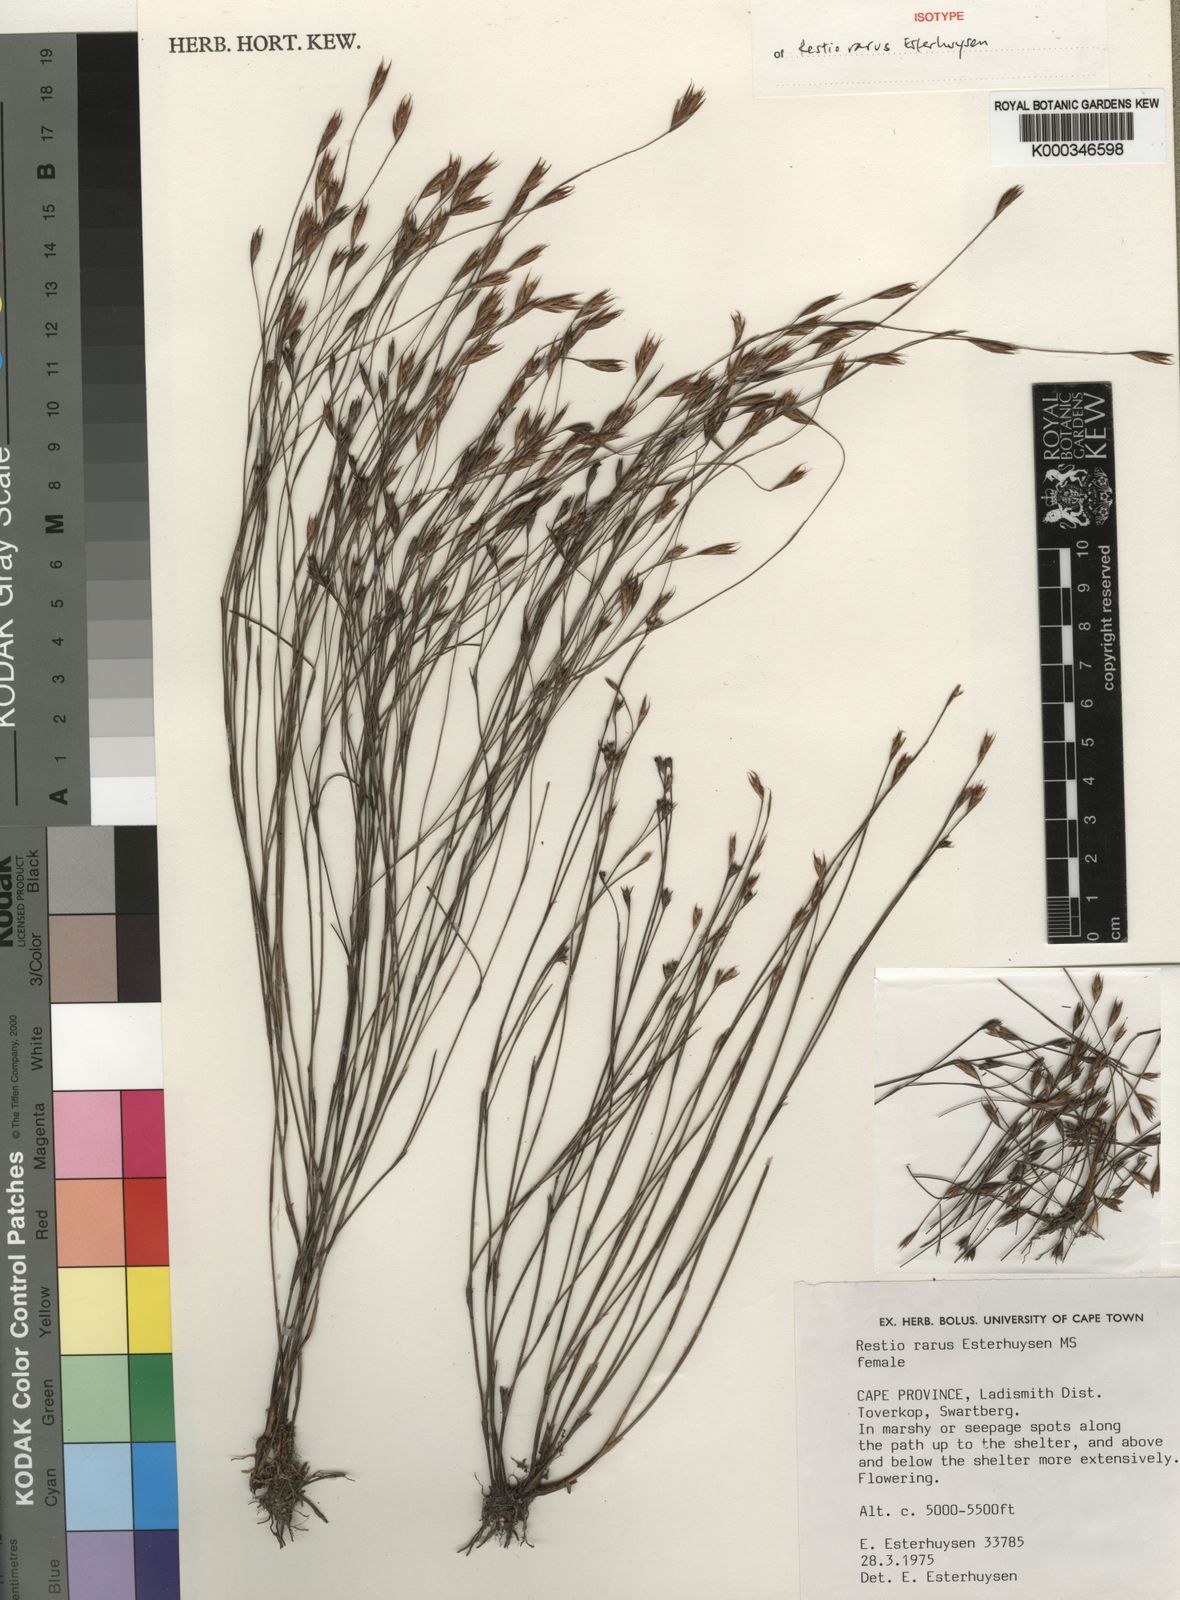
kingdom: Plantae
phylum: Tracheophyta
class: Liliopsida
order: Poales
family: Restionaceae
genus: Restio
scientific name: Restio rarus
